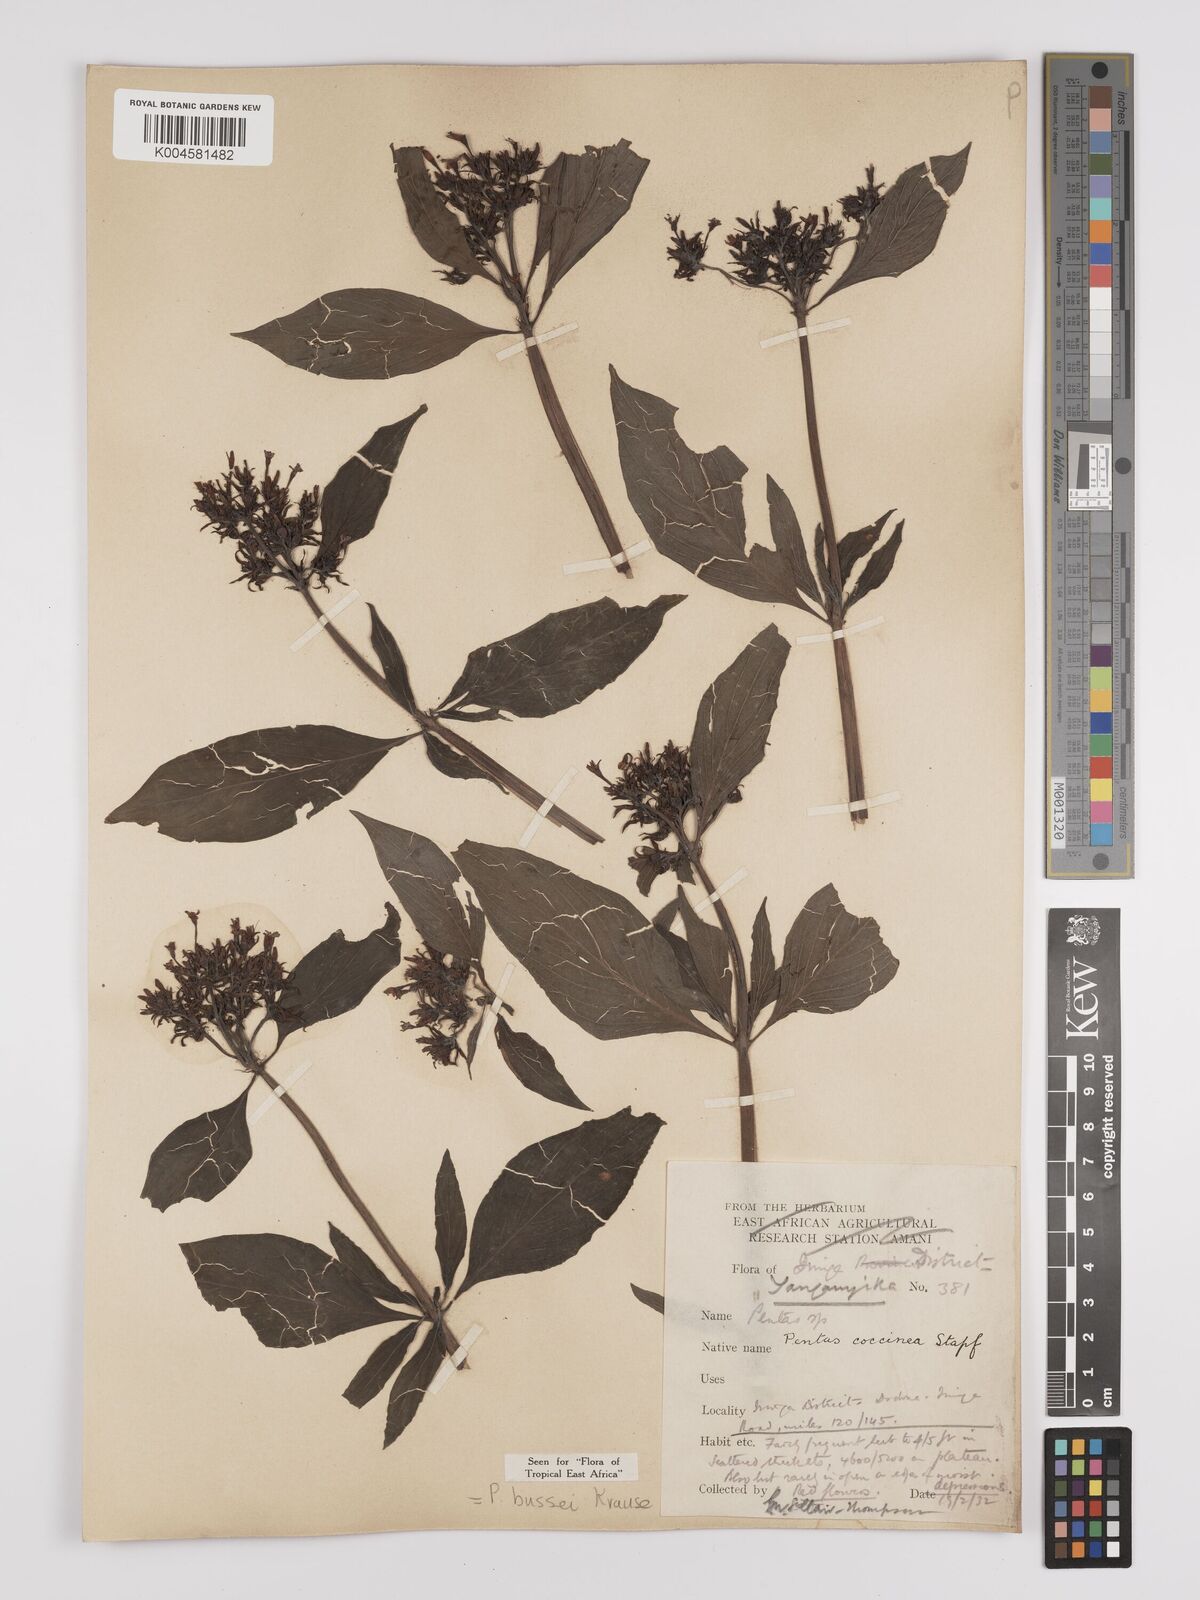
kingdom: Plantae
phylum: Tracheophyta
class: Magnoliopsida
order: Gentianales
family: Rubiaceae
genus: Rhodopentas
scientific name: Rhodopentas bussei
